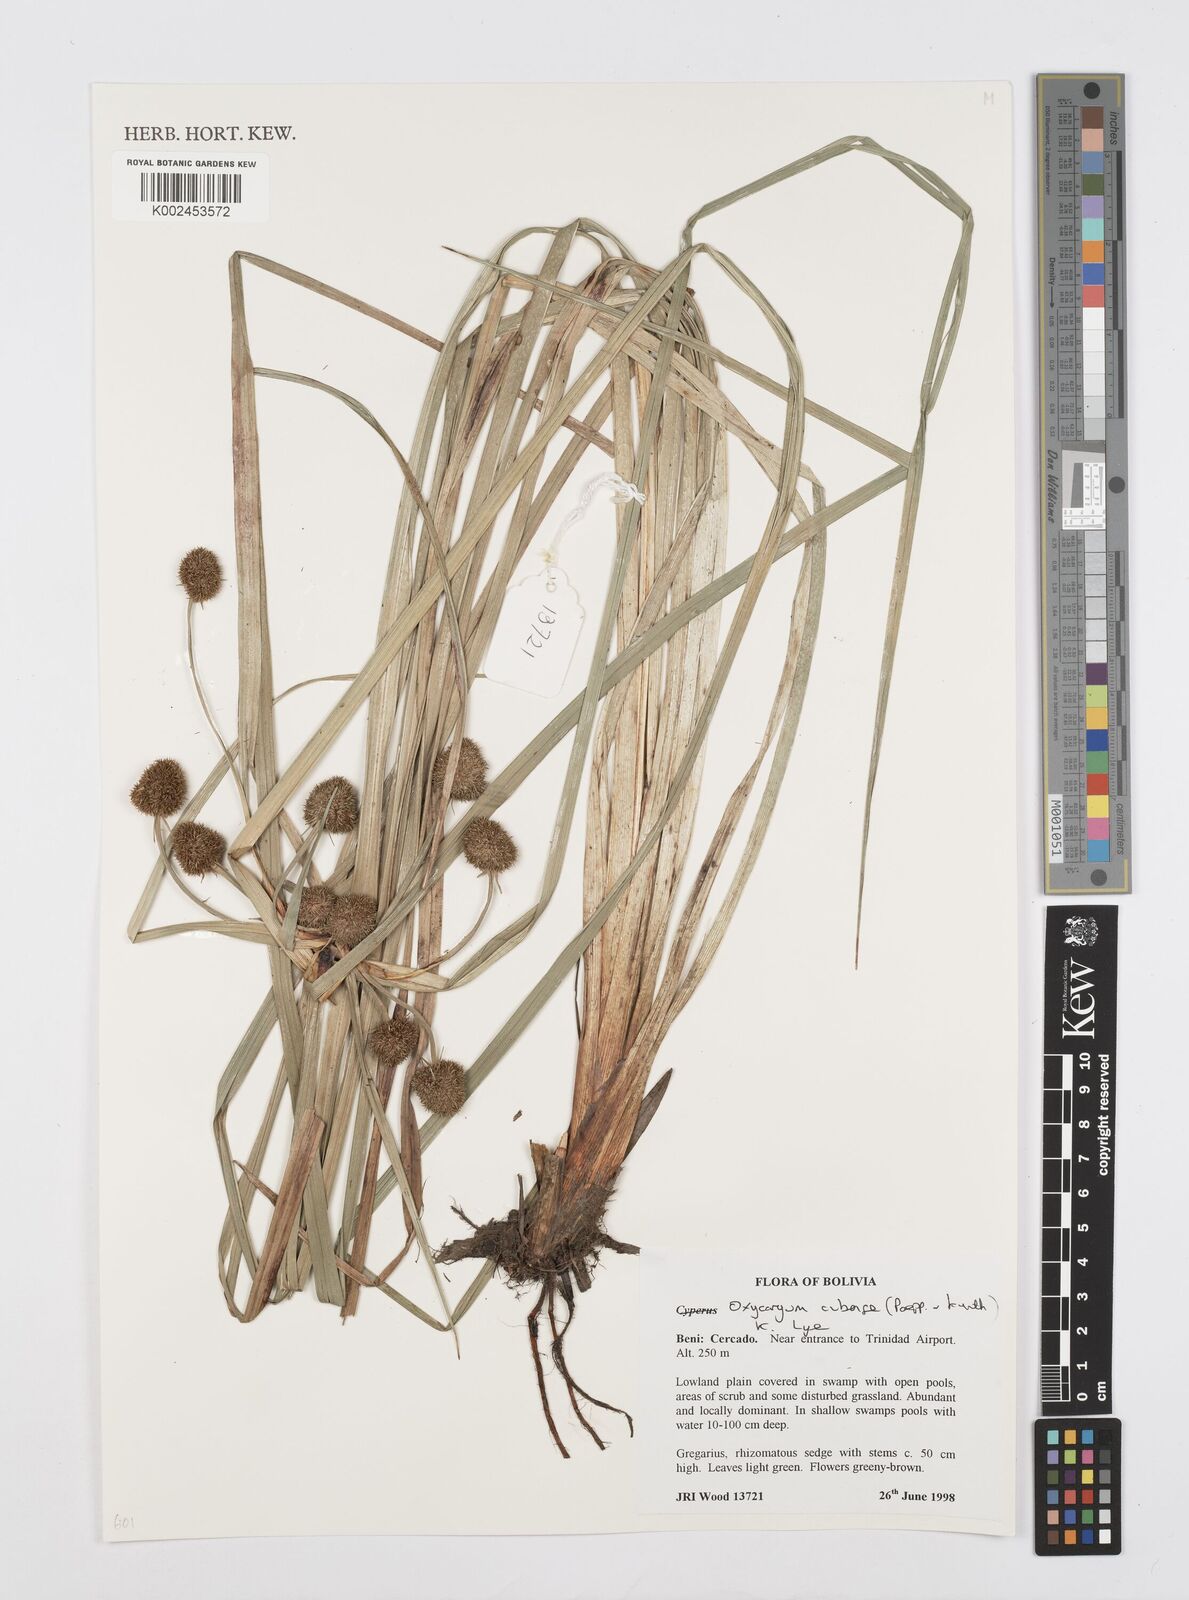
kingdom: Plantae
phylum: Tracheophyta
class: Liliopsida
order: Poales
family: Cyperaceae
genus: Cyperus
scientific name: Cyperus elegans
